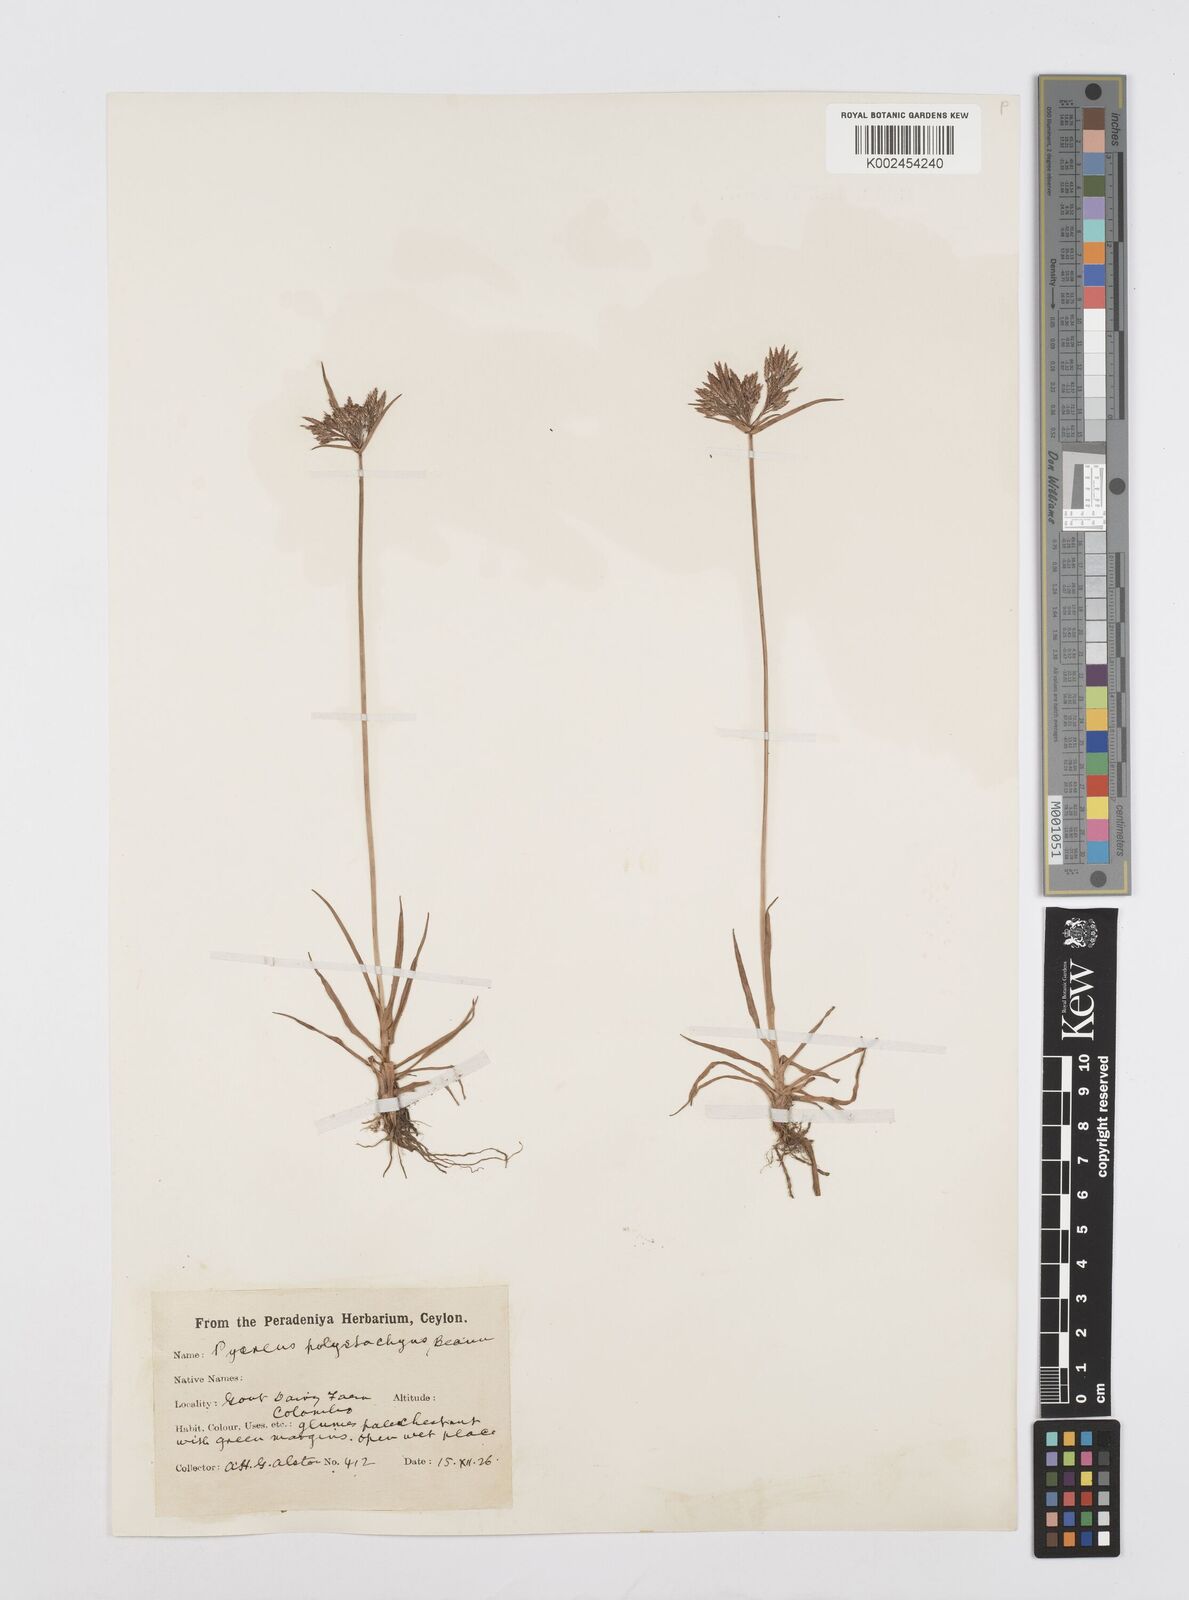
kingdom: Plantae
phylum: Tracheophyta
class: Liliopsida
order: Poales
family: Cyperaceae
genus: Cyperus
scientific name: Cyperus polystachyos
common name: Bunchy flat sedge
